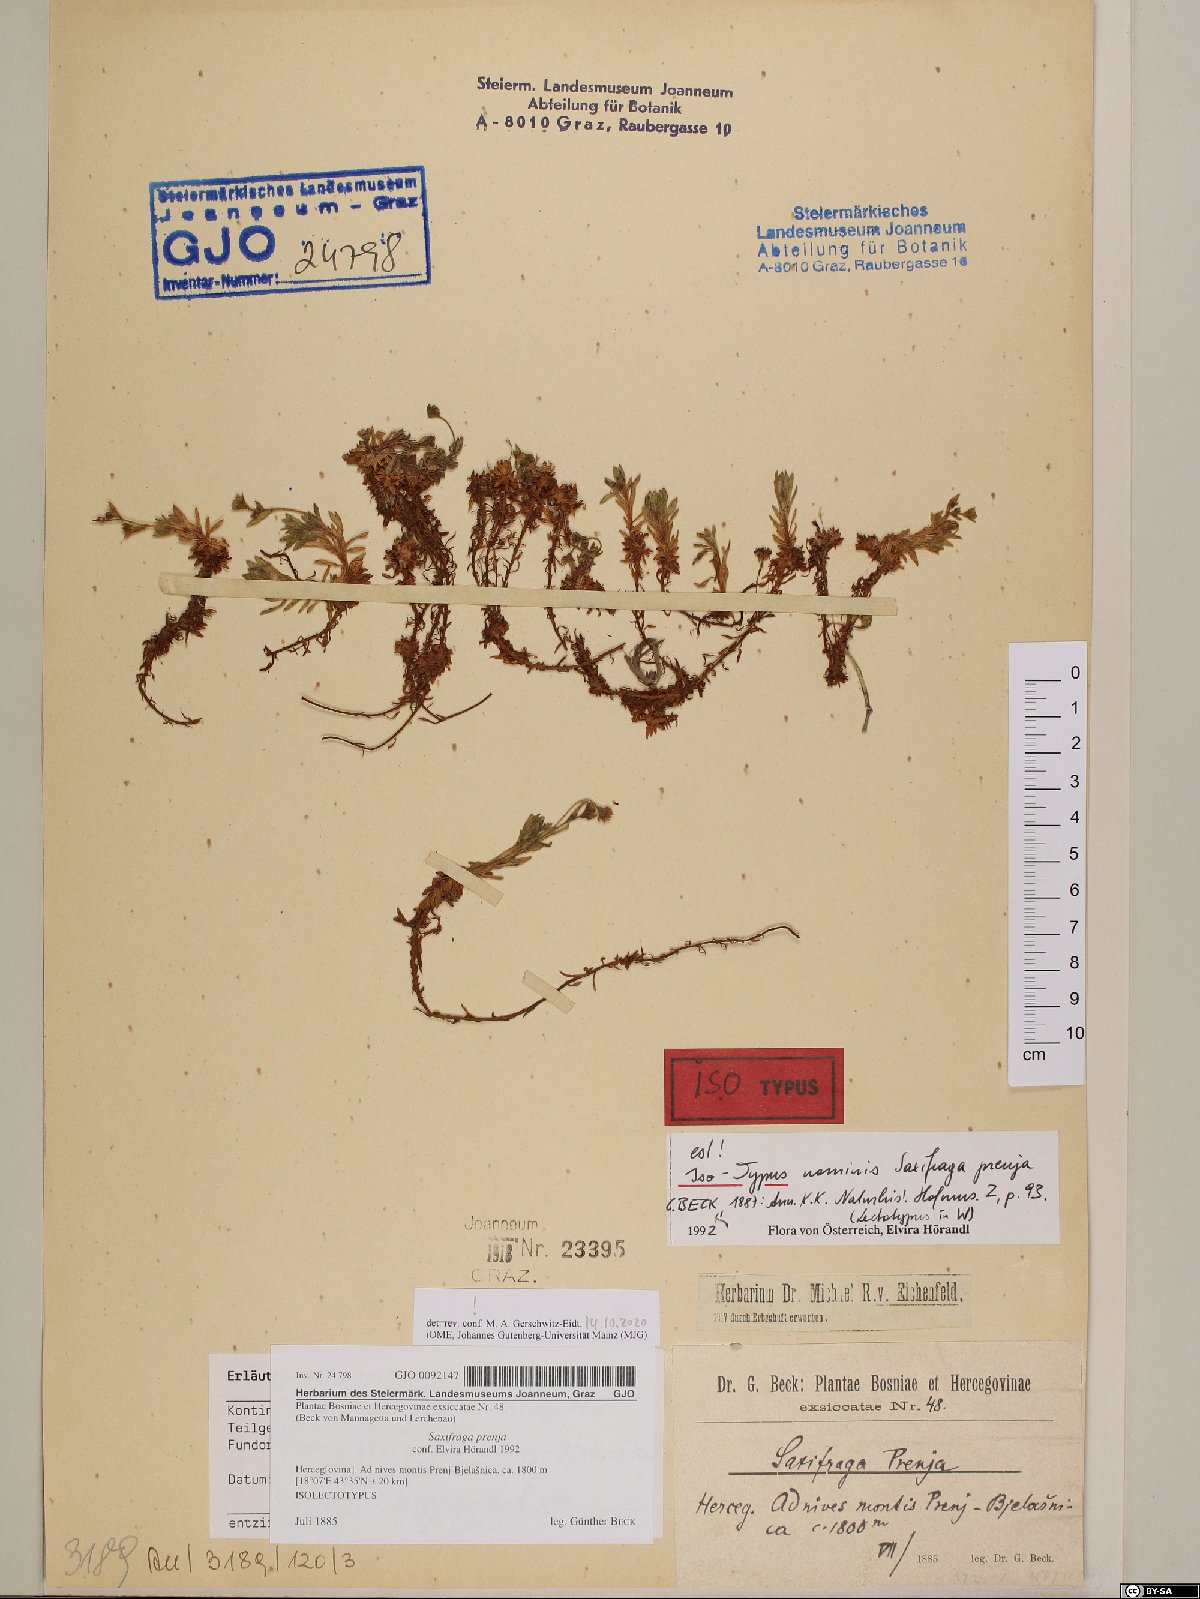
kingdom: Plantae
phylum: Tracheophyta
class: Magnoliopsida
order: Saxifragales
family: Saxifragaceae
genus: Saxifraga
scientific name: Saxifraga prenja
